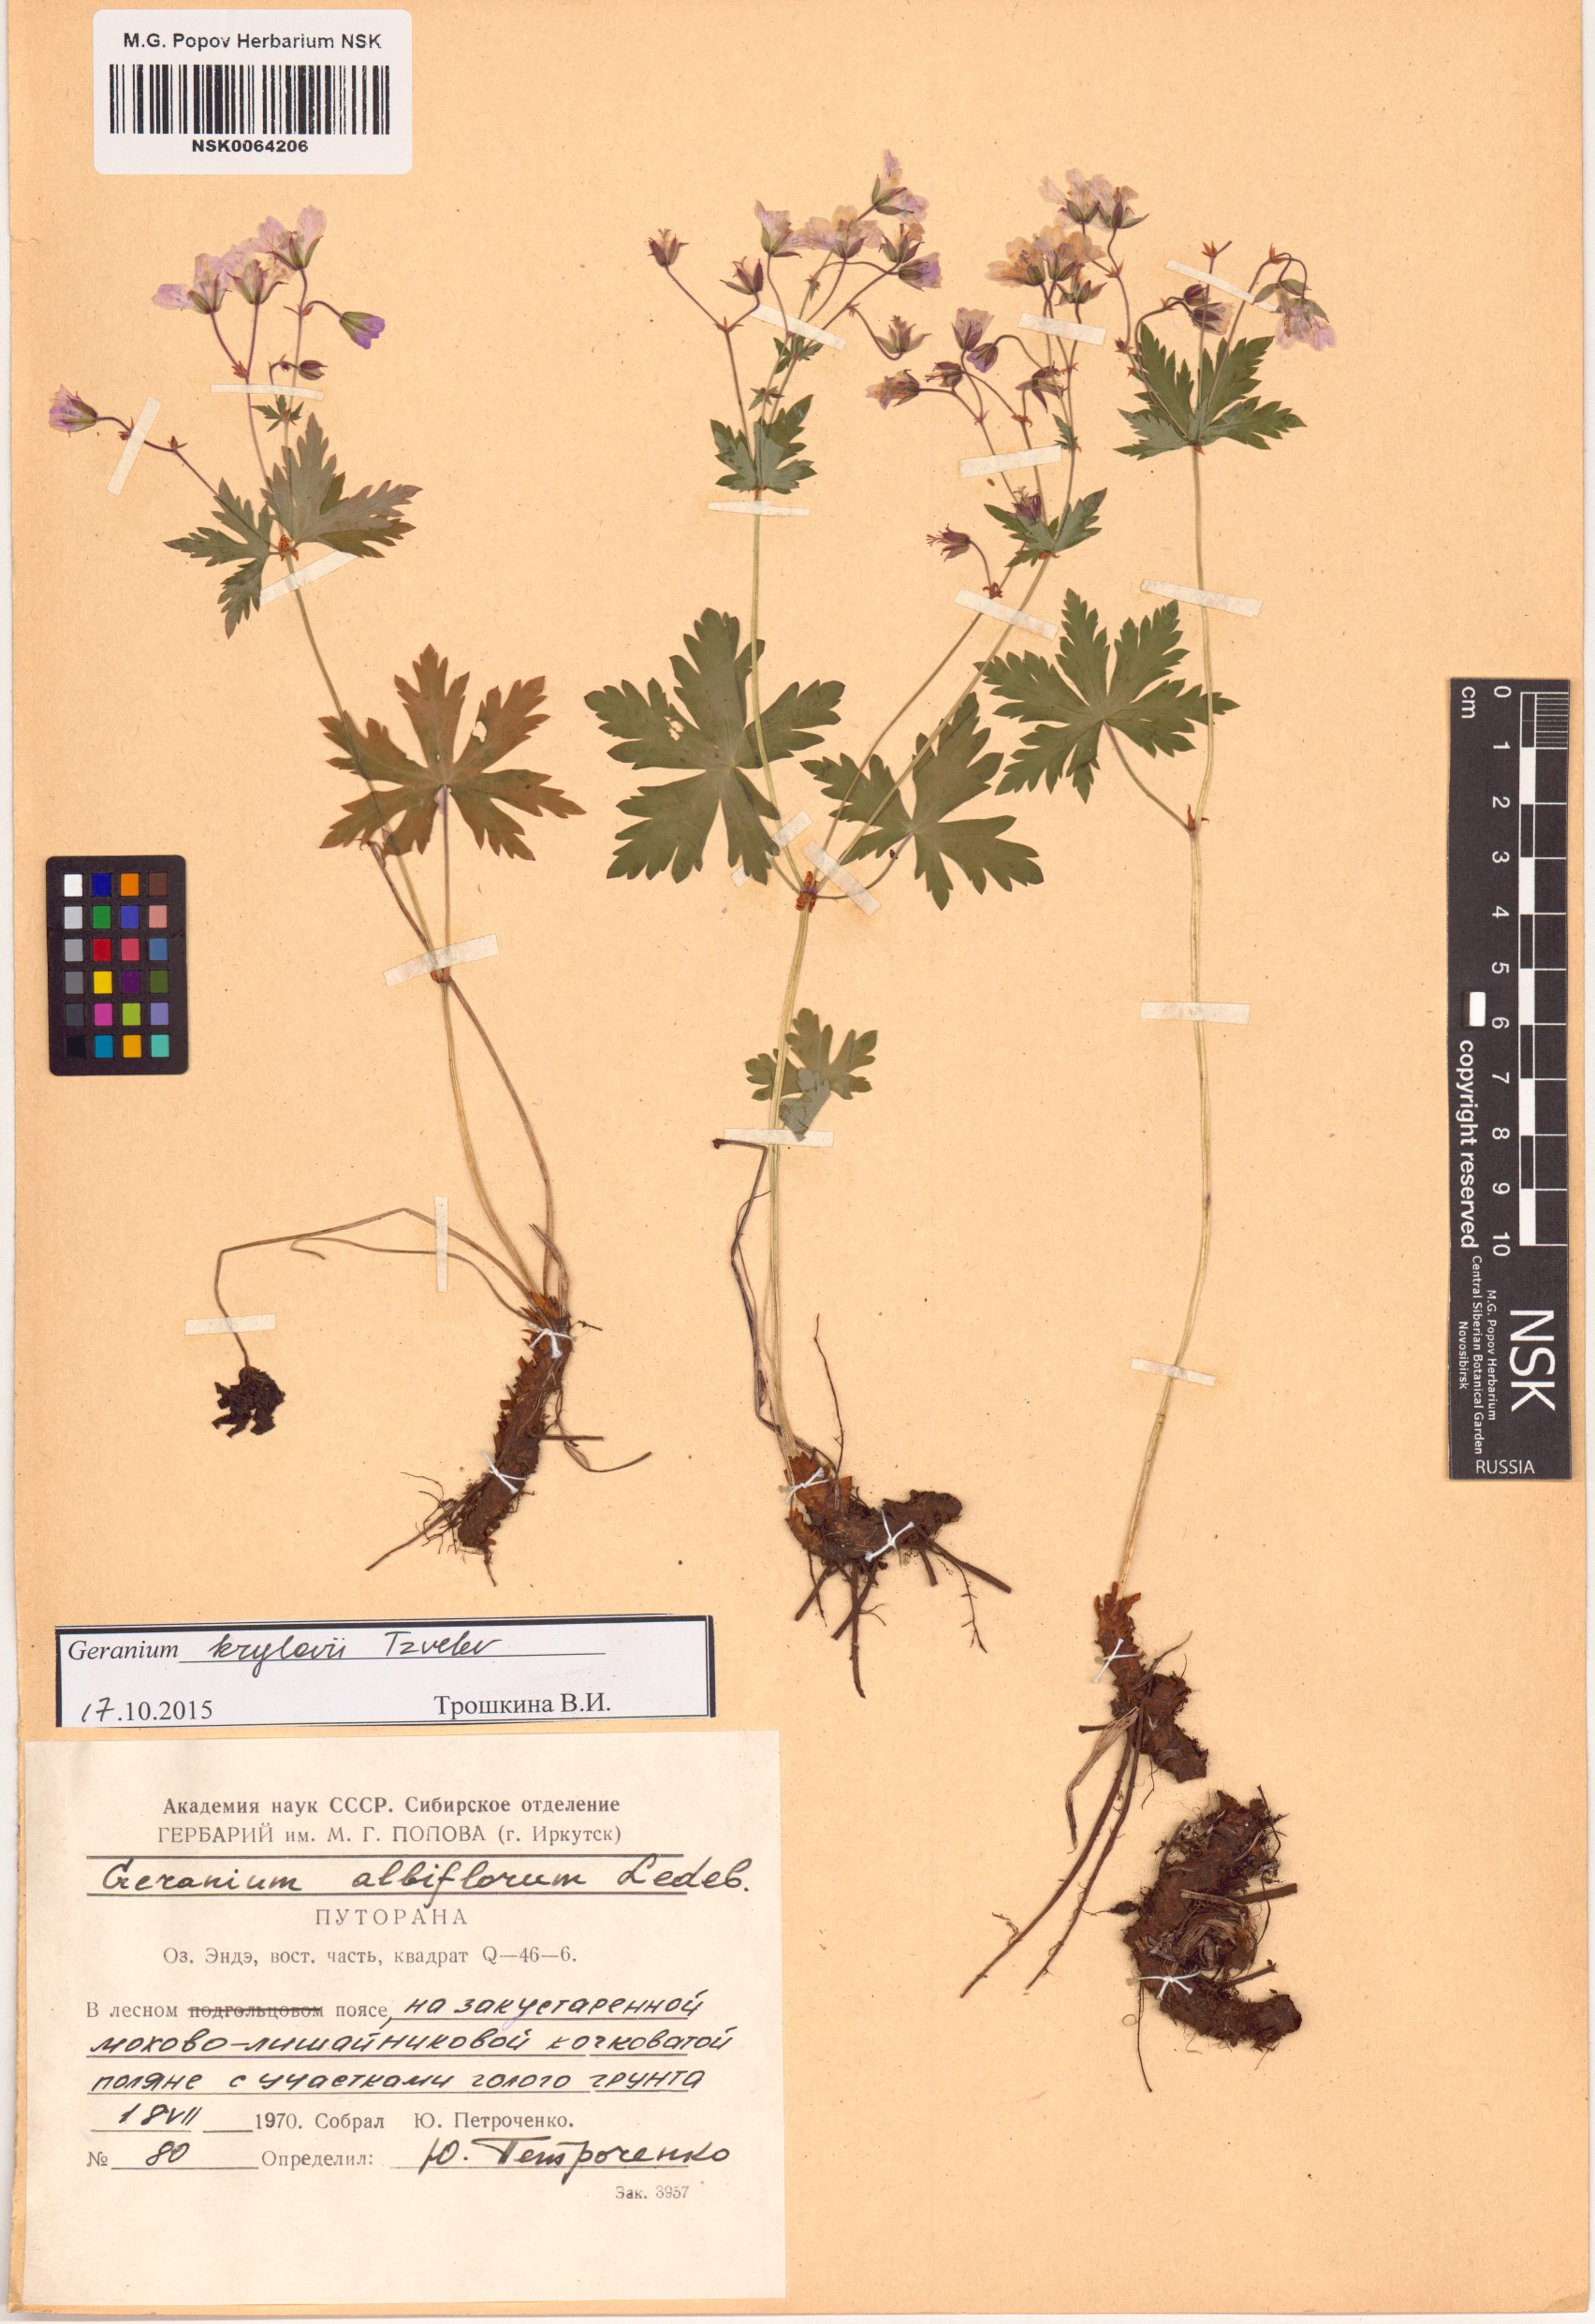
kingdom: Plantae
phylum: Tracheophyta
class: Magnoliopsida
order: Geraniales
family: Geraniaceae
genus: Geranium
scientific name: Geranium sylvaticum
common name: Wood crane's-bill
